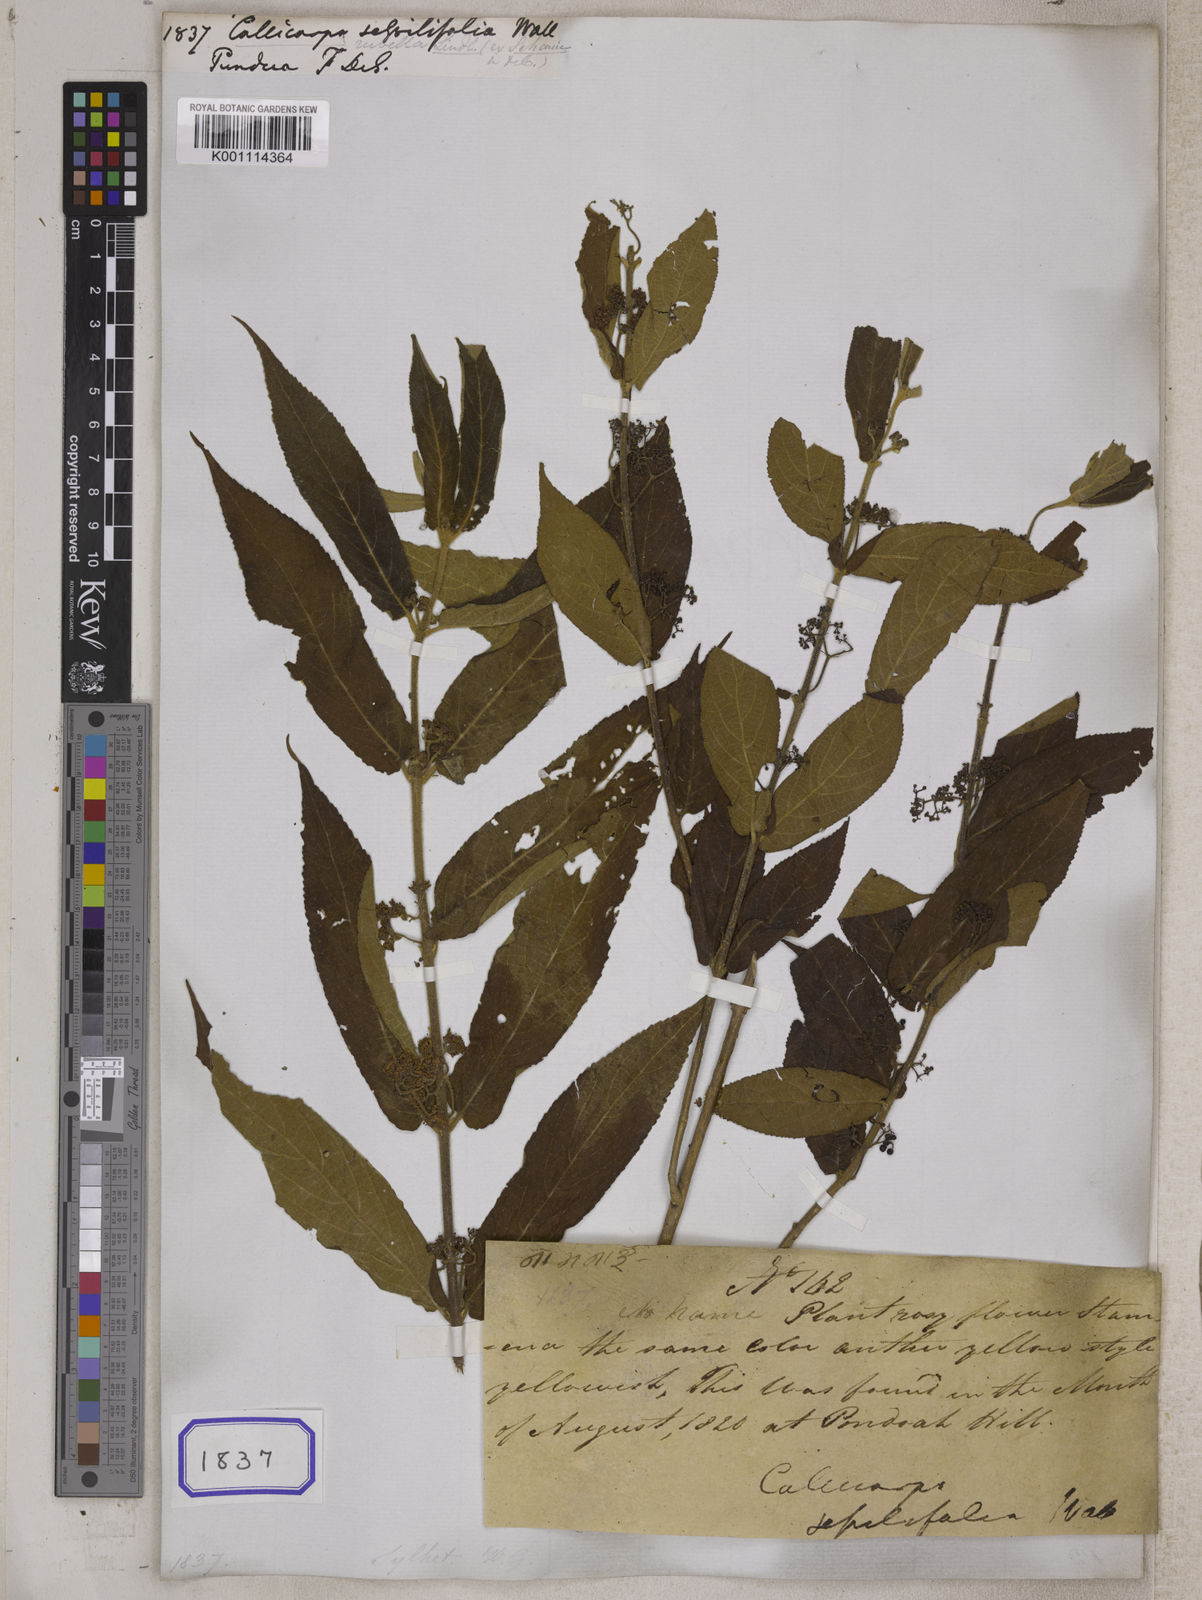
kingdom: Plantae
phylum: Tracheophyta
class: Magnoliopsida
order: Lamiales
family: Lamiaceae
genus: Callicarpa
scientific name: Callicarpa rubella
